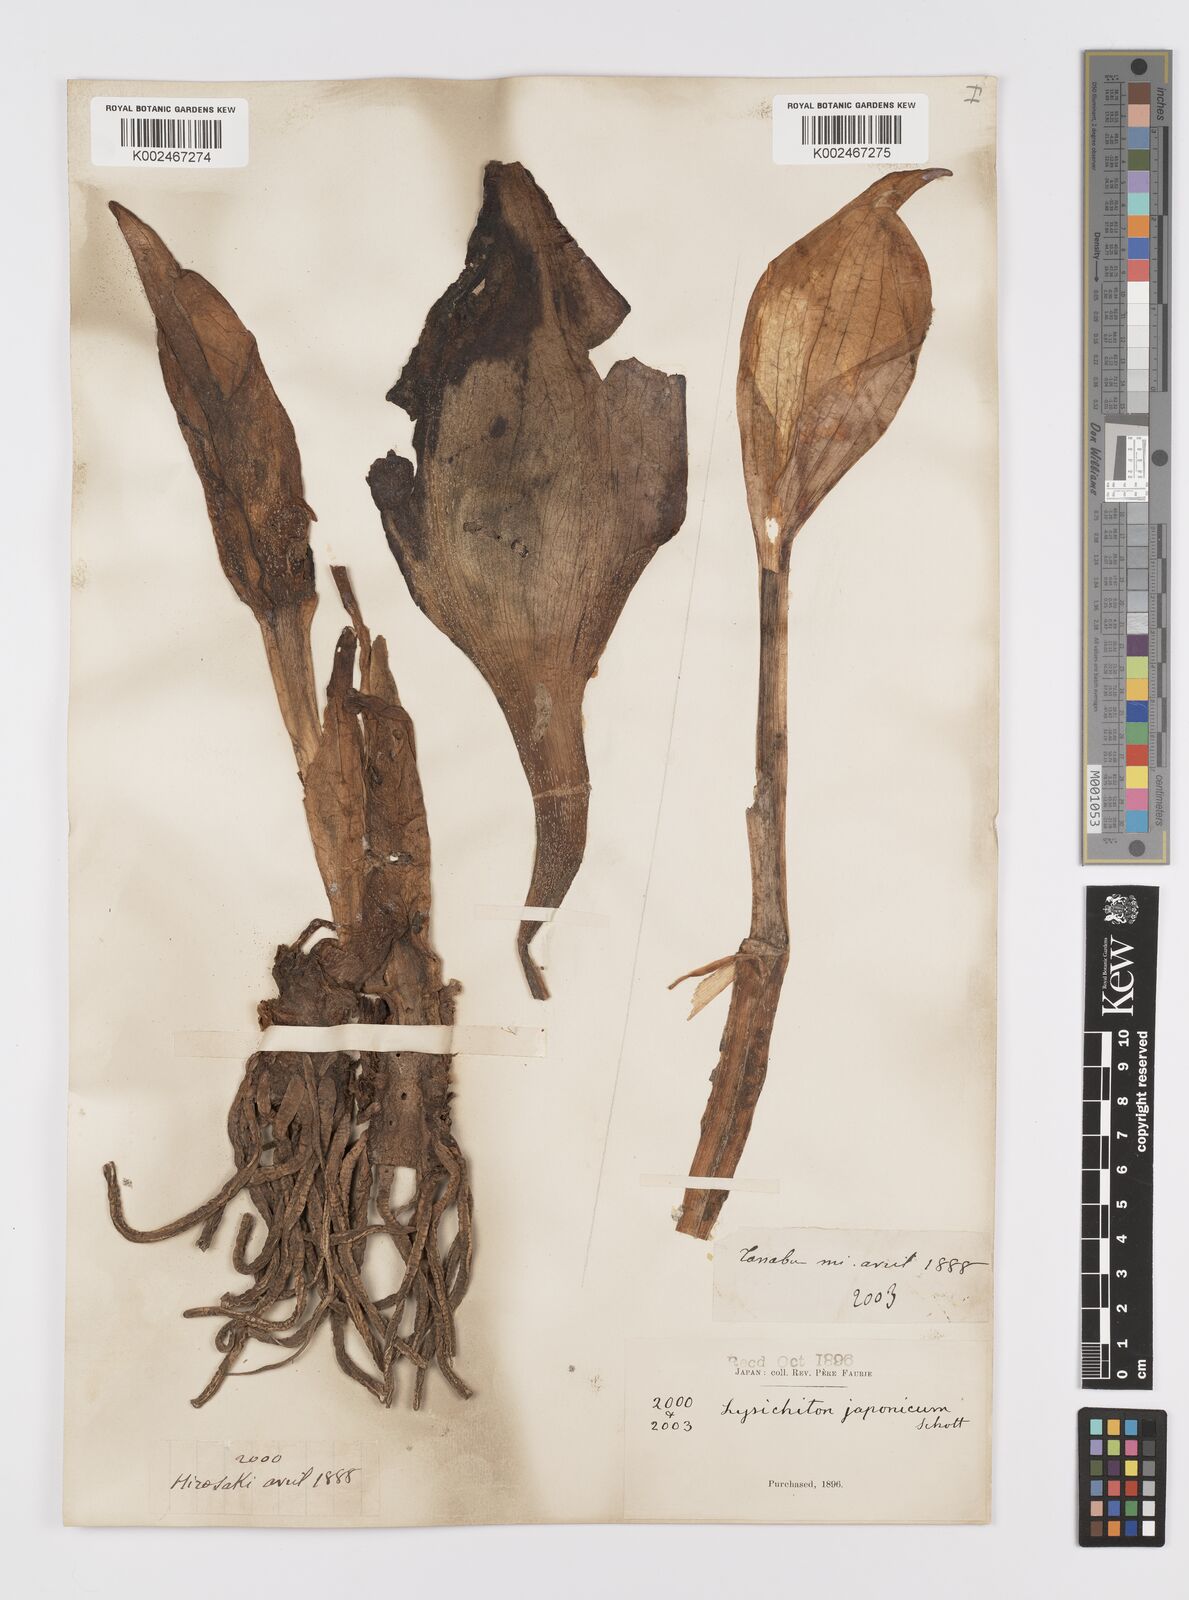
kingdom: Plantae
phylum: Tracheophyta
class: Liliopsida
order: Alismatales
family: Araceae
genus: Lysichiton
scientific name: Lysichiton camtschatcensis
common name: Asian skunk-cabbage
